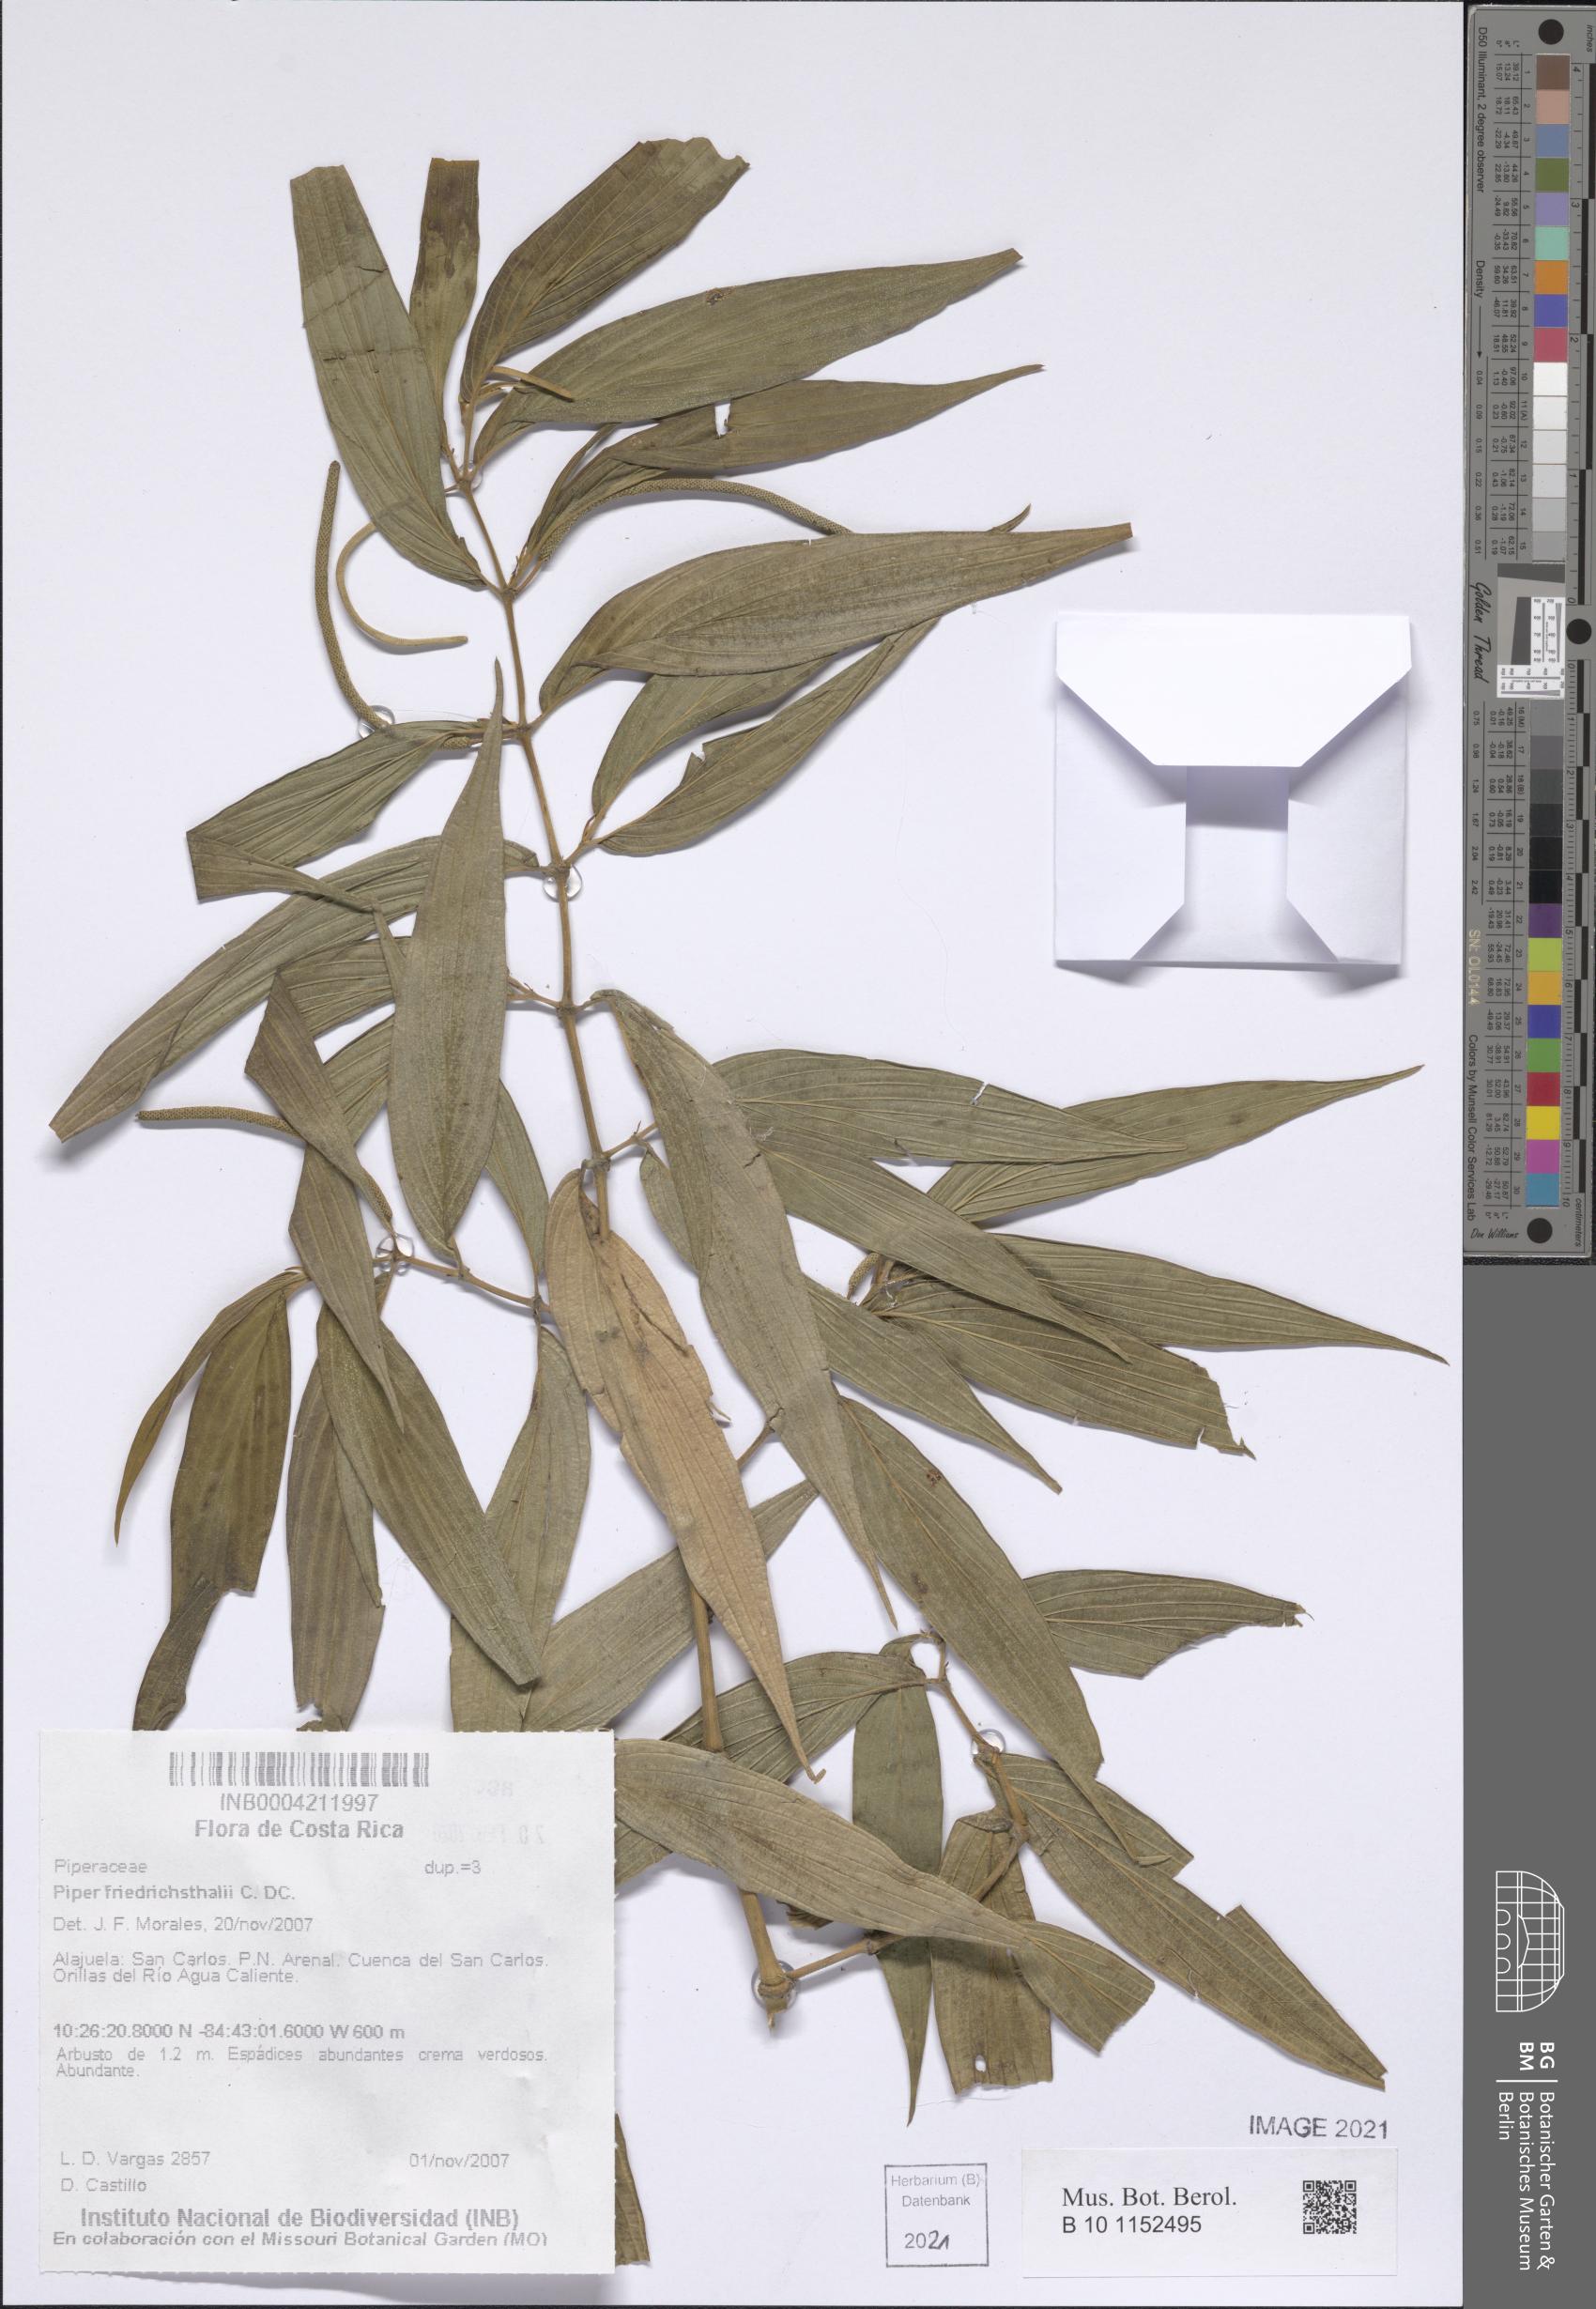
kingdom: Plantae
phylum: Tracheophyta
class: Magnoliopsida
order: Piperales
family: Piperaceae
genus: Piper
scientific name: Piper friedrichsthalii
